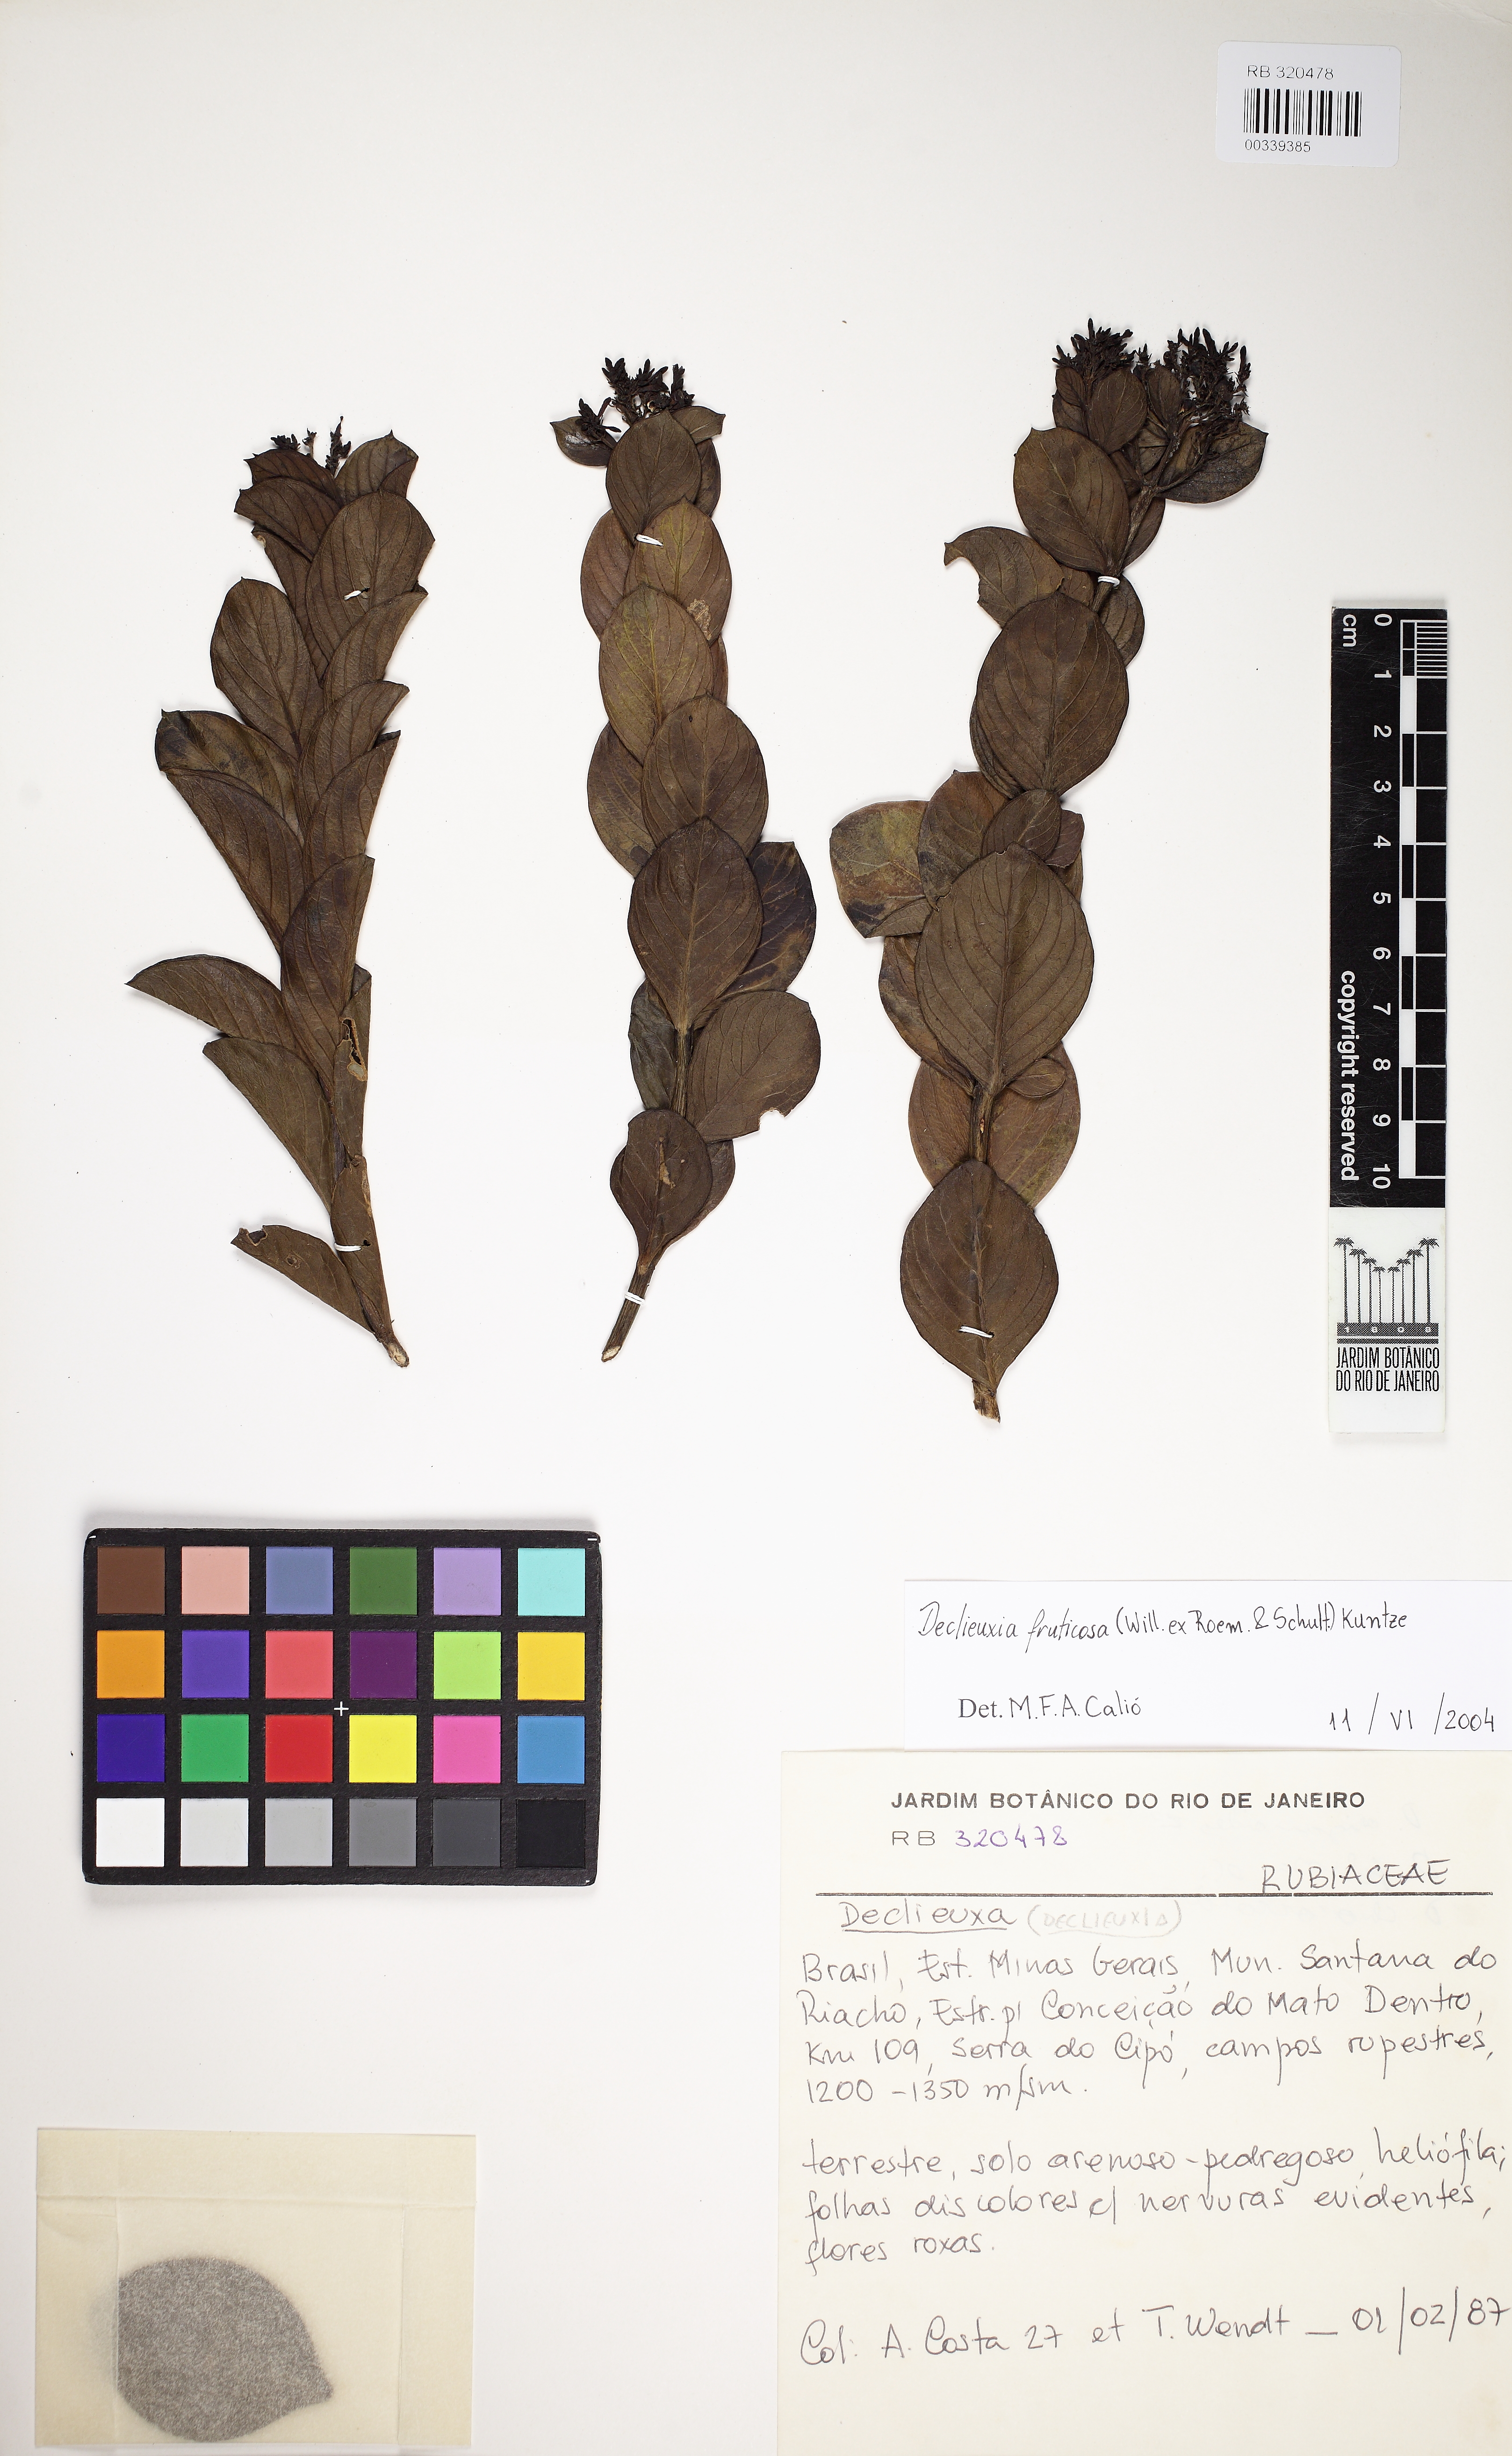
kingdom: Plantae
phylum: Tracheophyta
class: Magnoliopsida
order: Gentianales
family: Rubiaceae
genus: Declieuxia
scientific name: Declieuxia fruticosa
